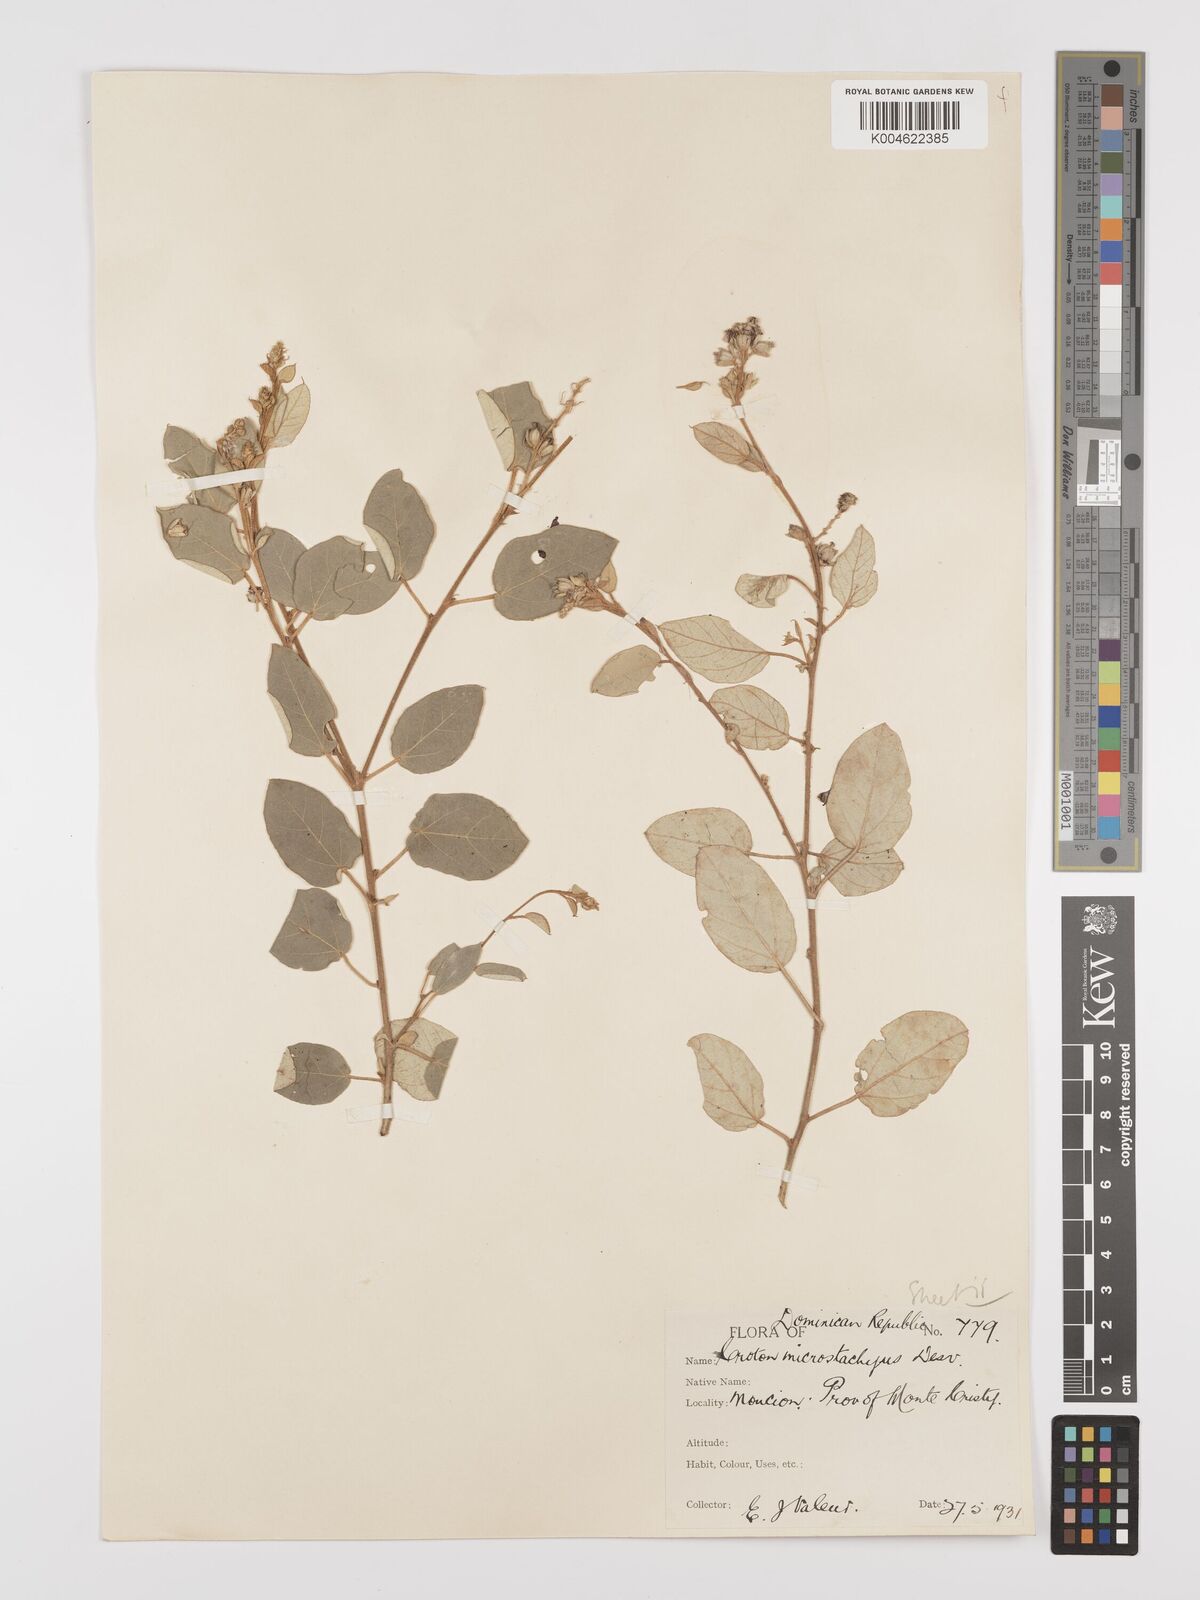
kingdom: Plantae
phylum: Tracheophyta
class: Magnoliopsida
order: Malpighiales
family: Euphorbiaceae
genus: Croton
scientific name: Croton sidifolius
